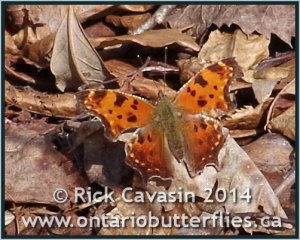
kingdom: Animalia
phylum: Arthropoda
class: Insecta
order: Lepidoptera
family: Nymphalidae
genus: Polygonia
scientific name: Polygonia comma
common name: Eastern Comma
